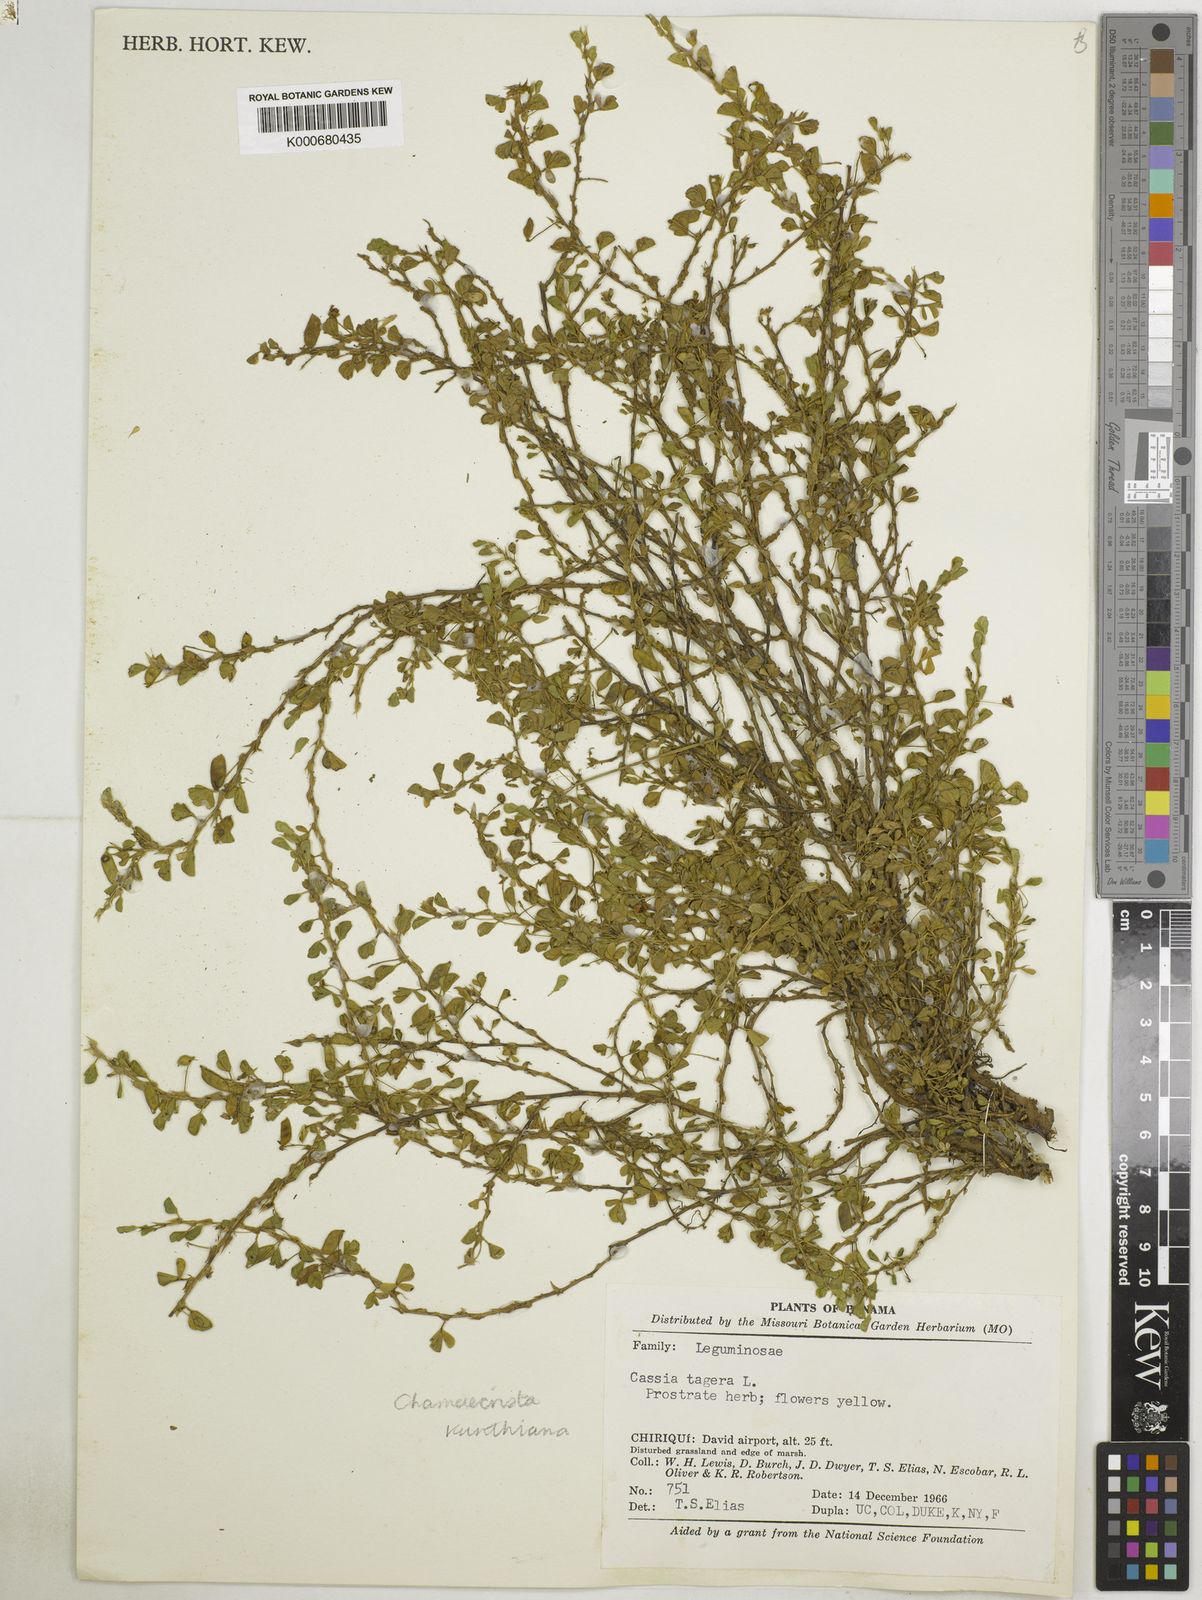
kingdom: Plantae
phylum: Tracheophyta
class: Magnoliopsida
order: Fabales
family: Fabaceae
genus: Chamaecrista
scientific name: Chamaecrista kunthiana
